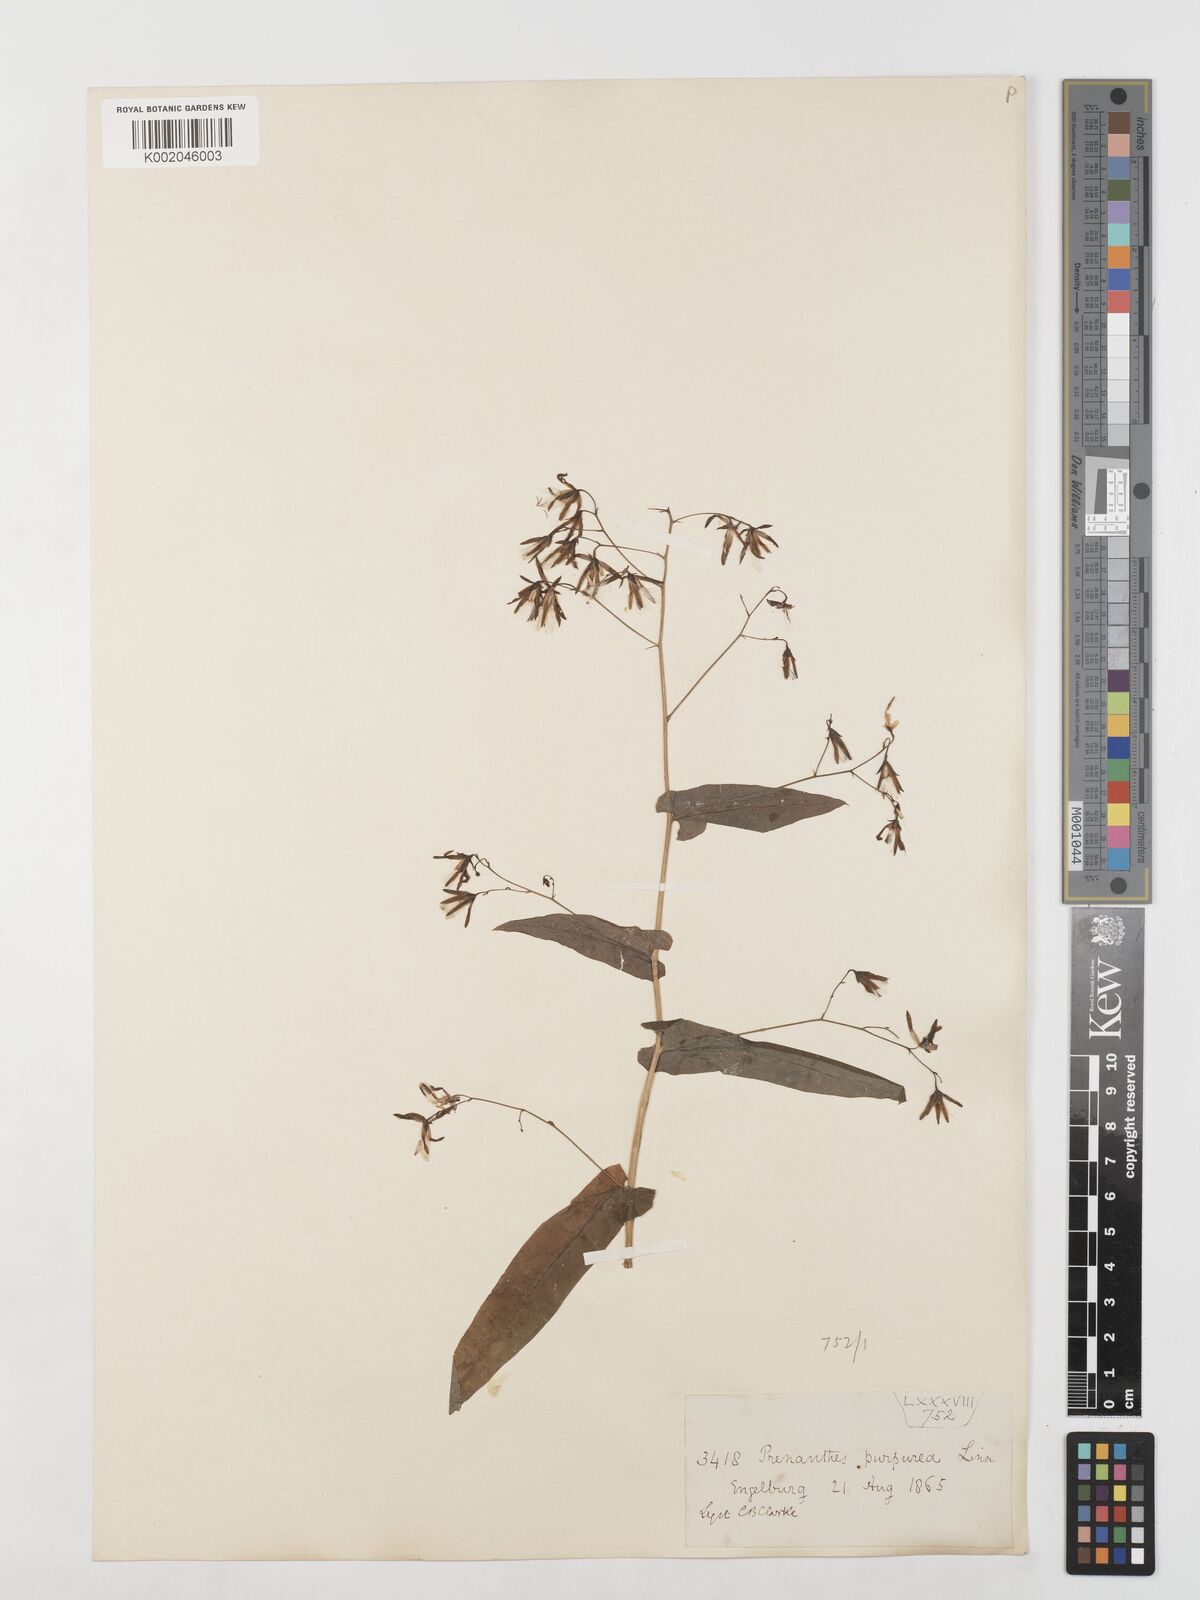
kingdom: Plantae
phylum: Tracheophyta
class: Magnoliopsida
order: Asterales
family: Asteraceae
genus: Prenanthes
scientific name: Prenanthes purpurea
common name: Purple lettuce
